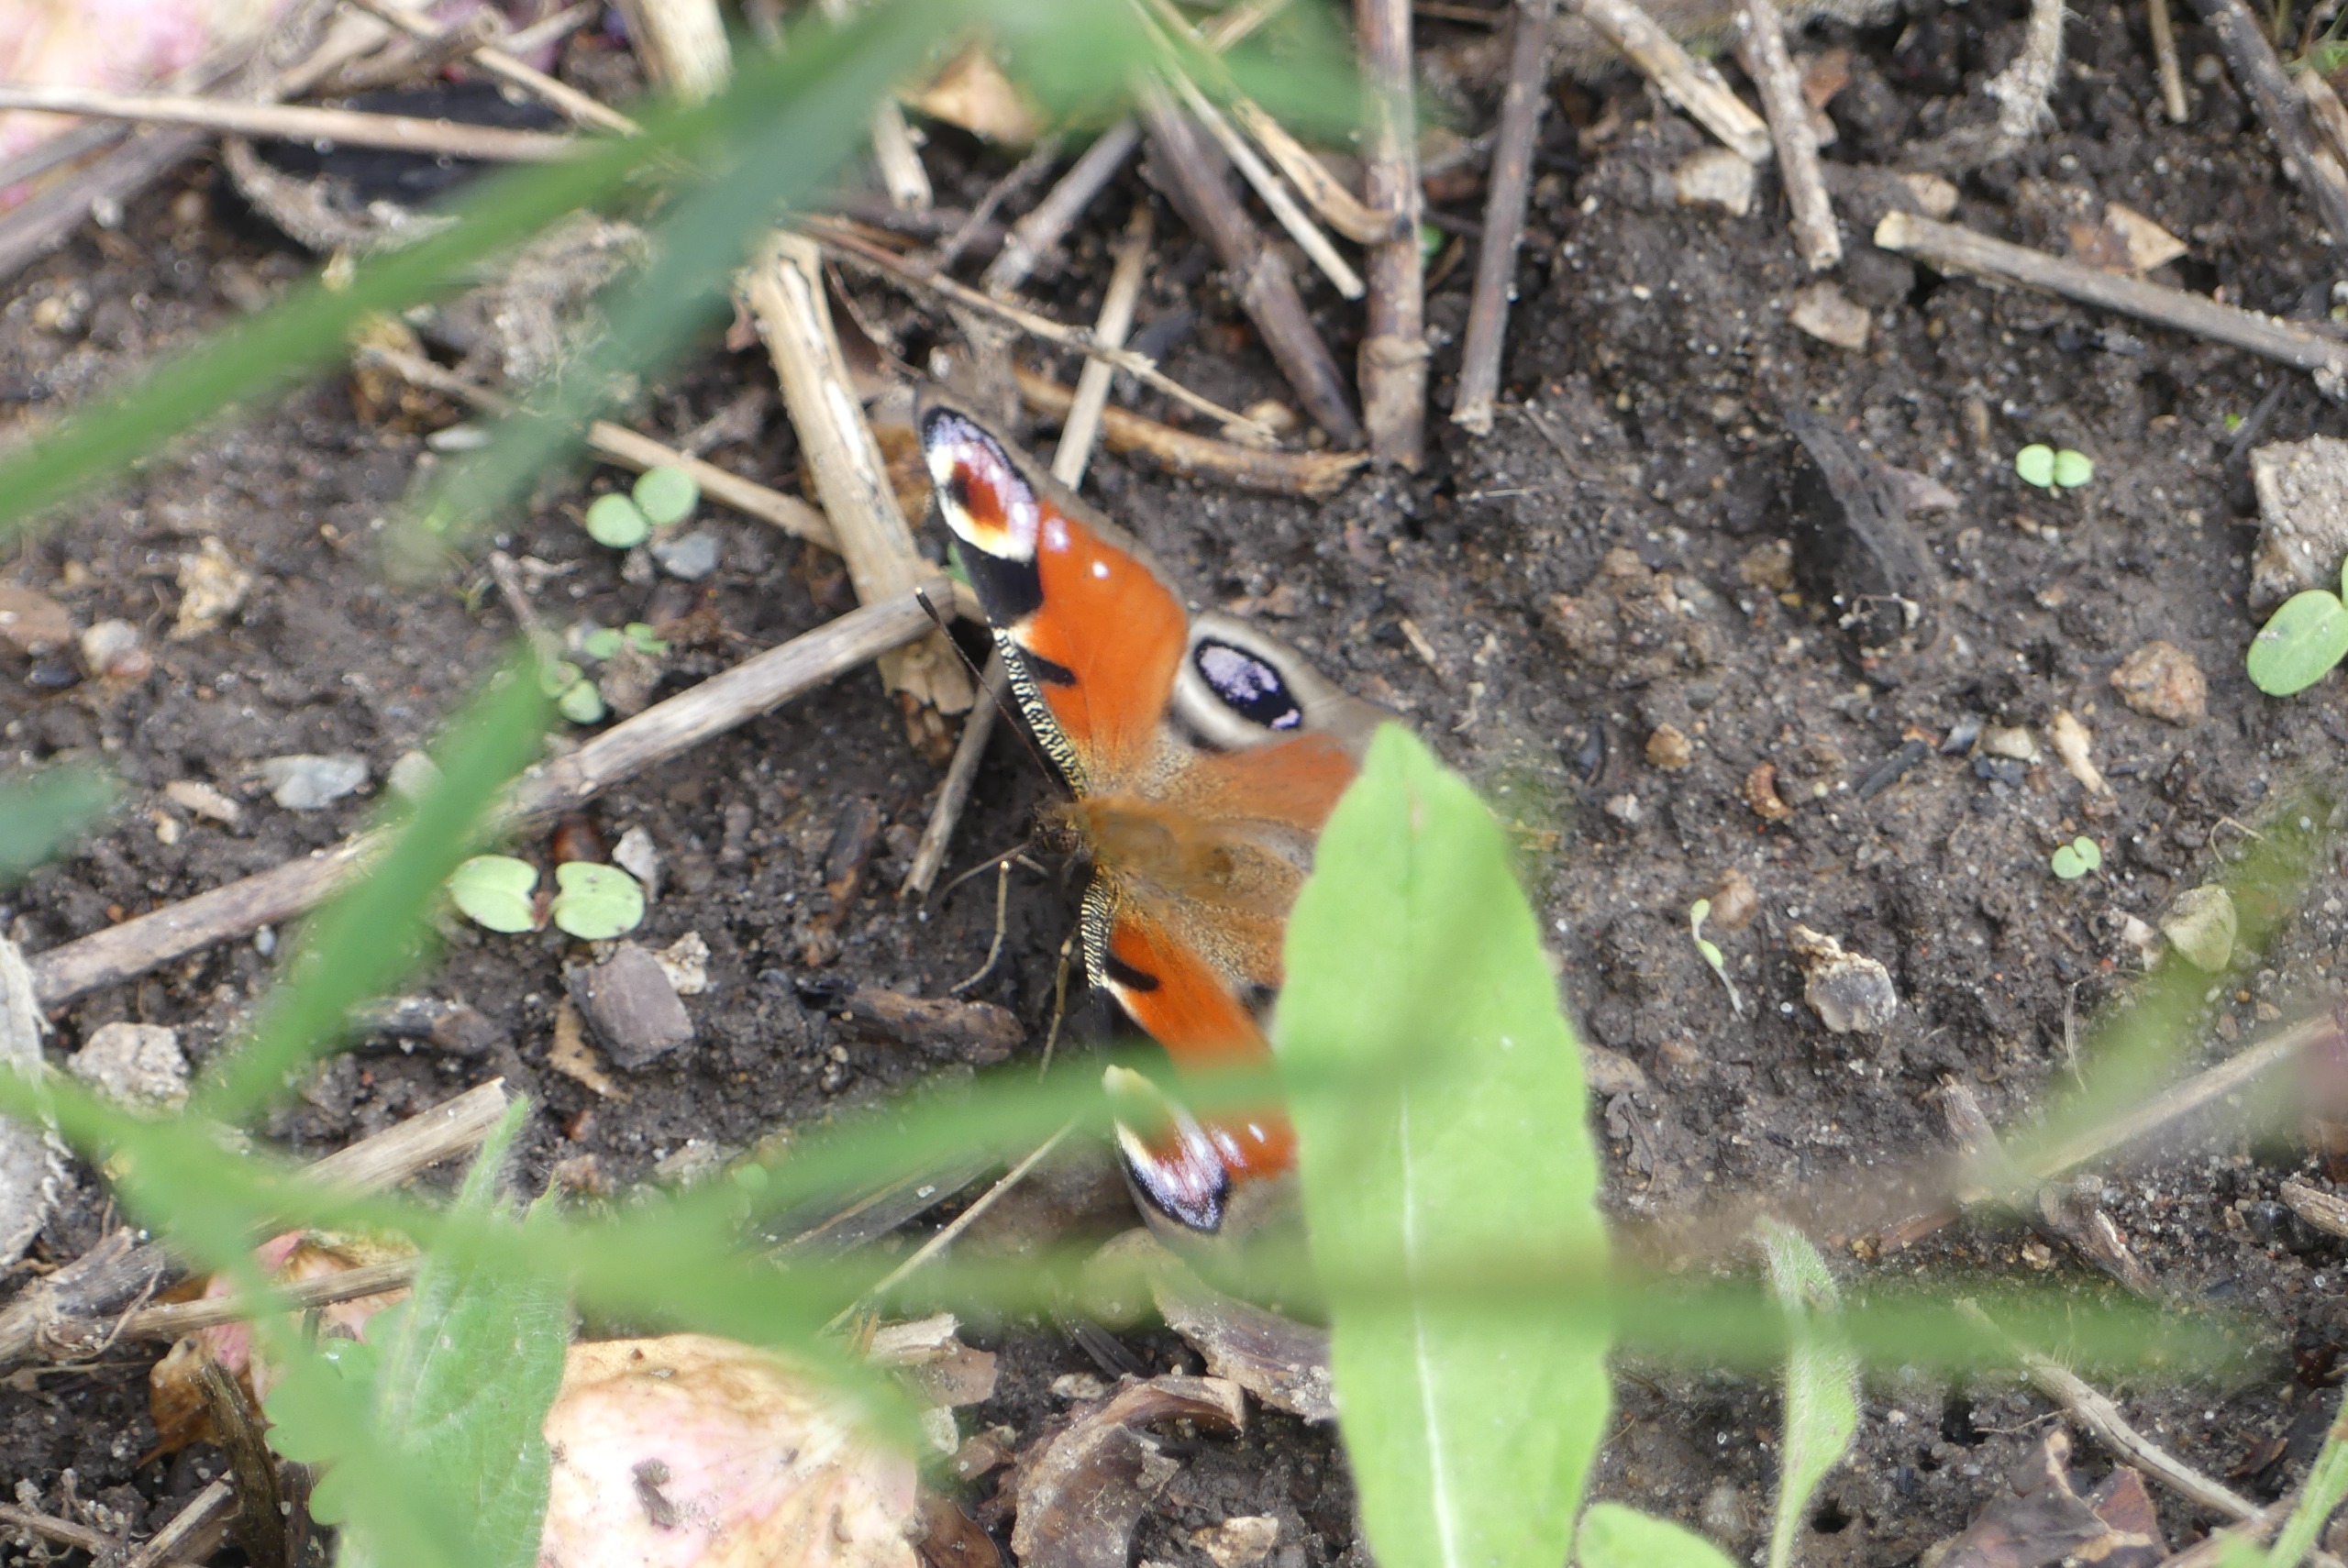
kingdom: Animalia
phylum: Arthropoda
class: Insecta
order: Lepidoptera
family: Nymphalidae
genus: Aglais
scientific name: Aglais io
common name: Dagpåfugleøje
